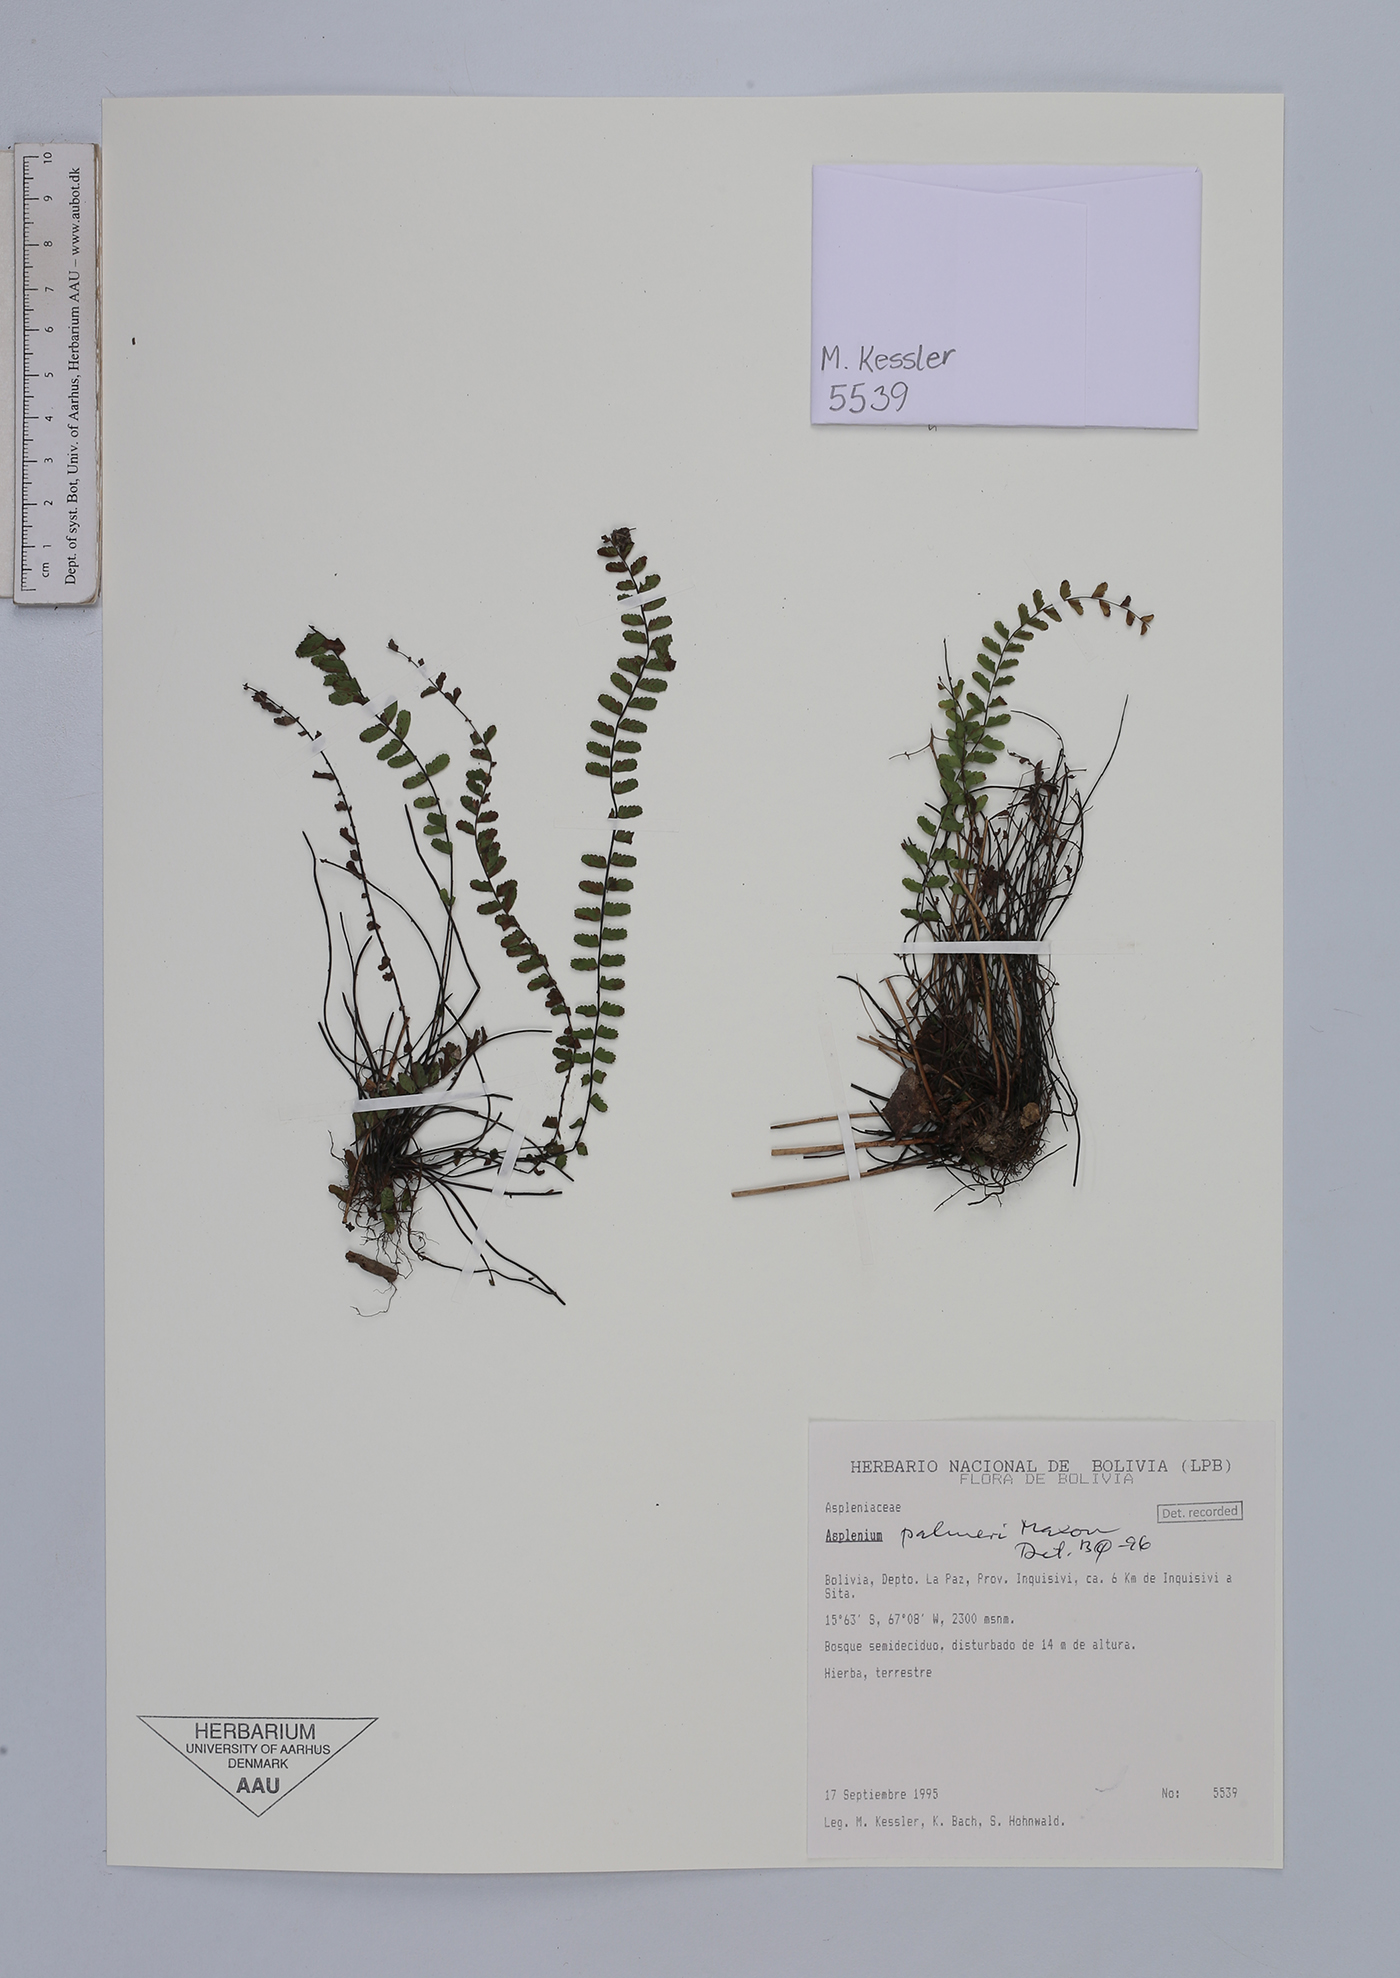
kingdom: Plantae
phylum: Tracheophyta
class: Polypodiopsida
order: Polypodiales
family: Aspleniaceae
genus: Asplenium
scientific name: Asplenium palmeri
